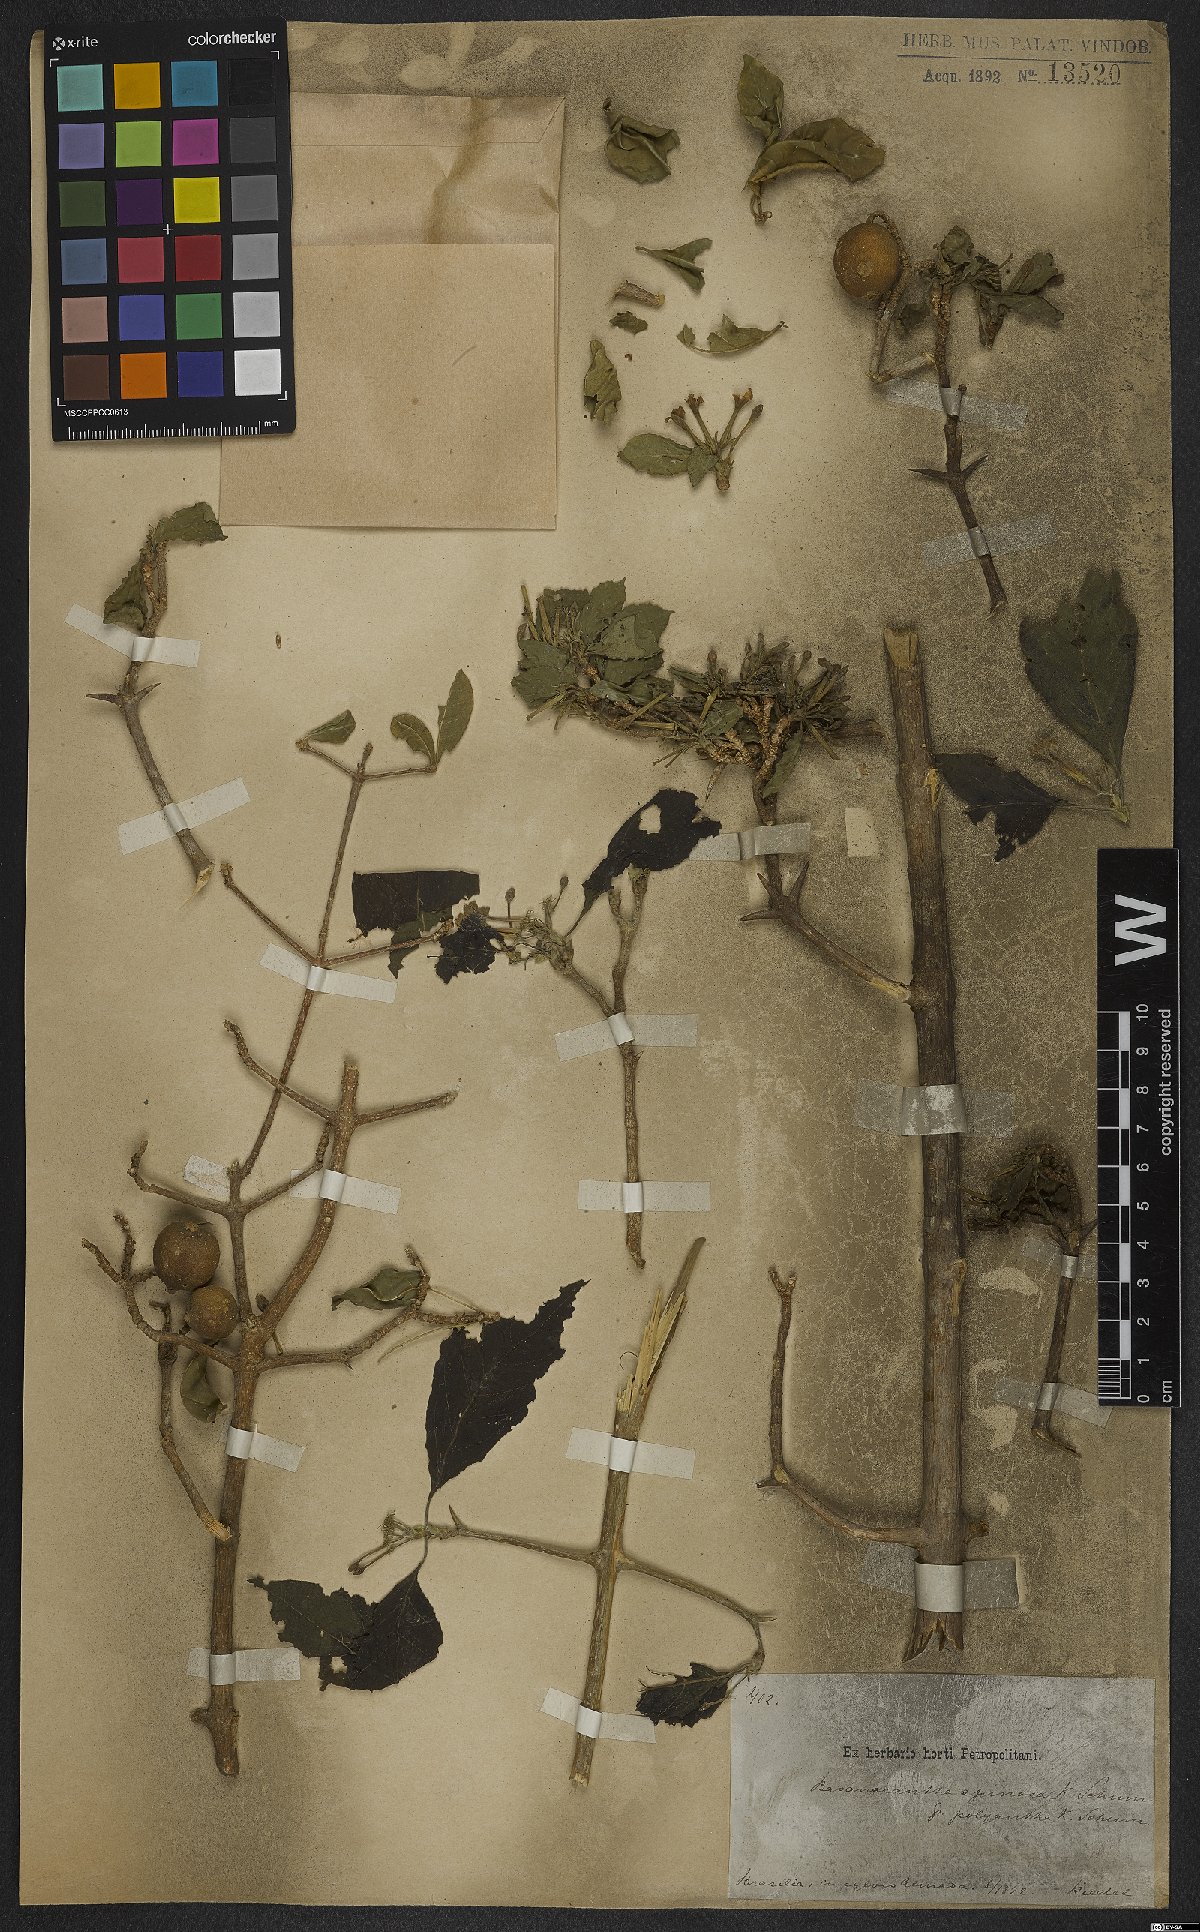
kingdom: Plantae
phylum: Tracheophyta
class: Magnoliopsida
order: Gentianales
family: Rubiaceae
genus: Randia
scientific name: Randia armata
